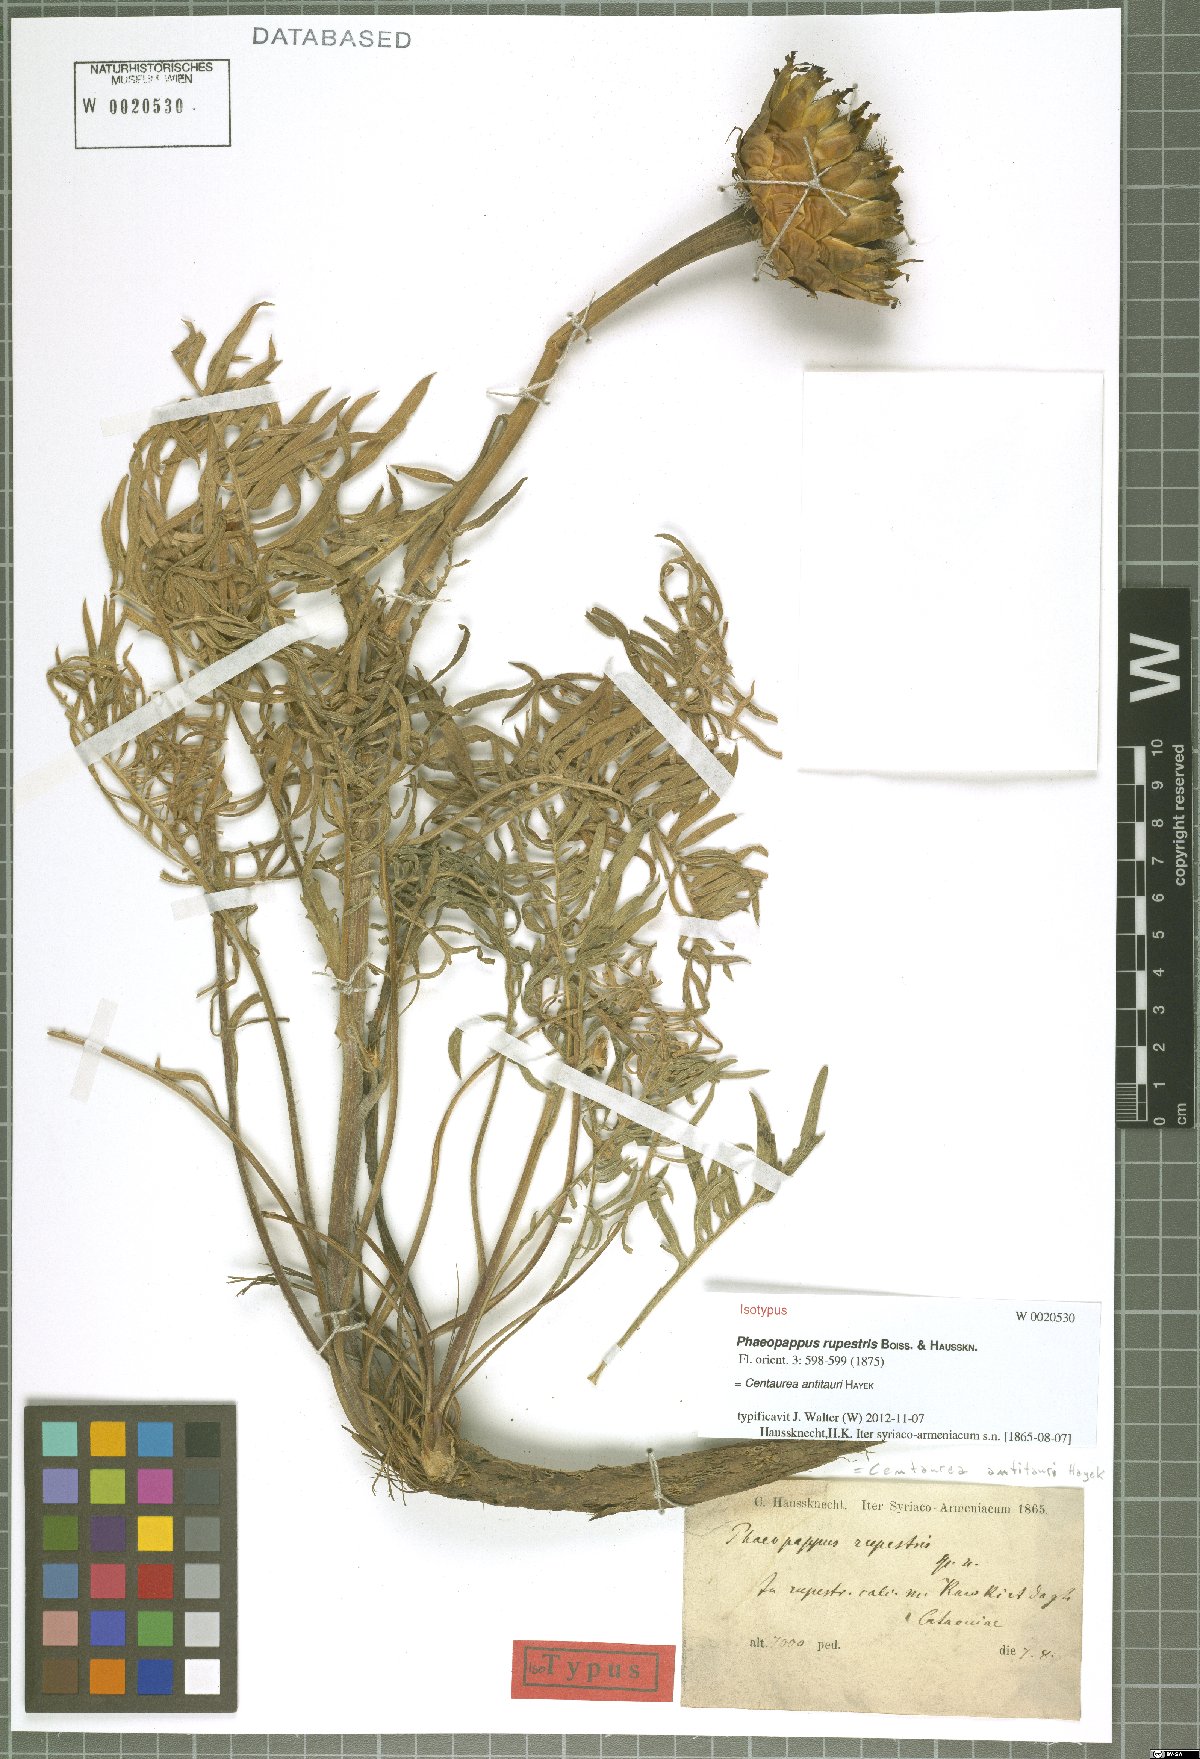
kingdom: Plantae
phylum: Tracheophyta
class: Magnoliopsida
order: Asterales
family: Asteraceae
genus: Centaurea
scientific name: Centaurea antitauri
